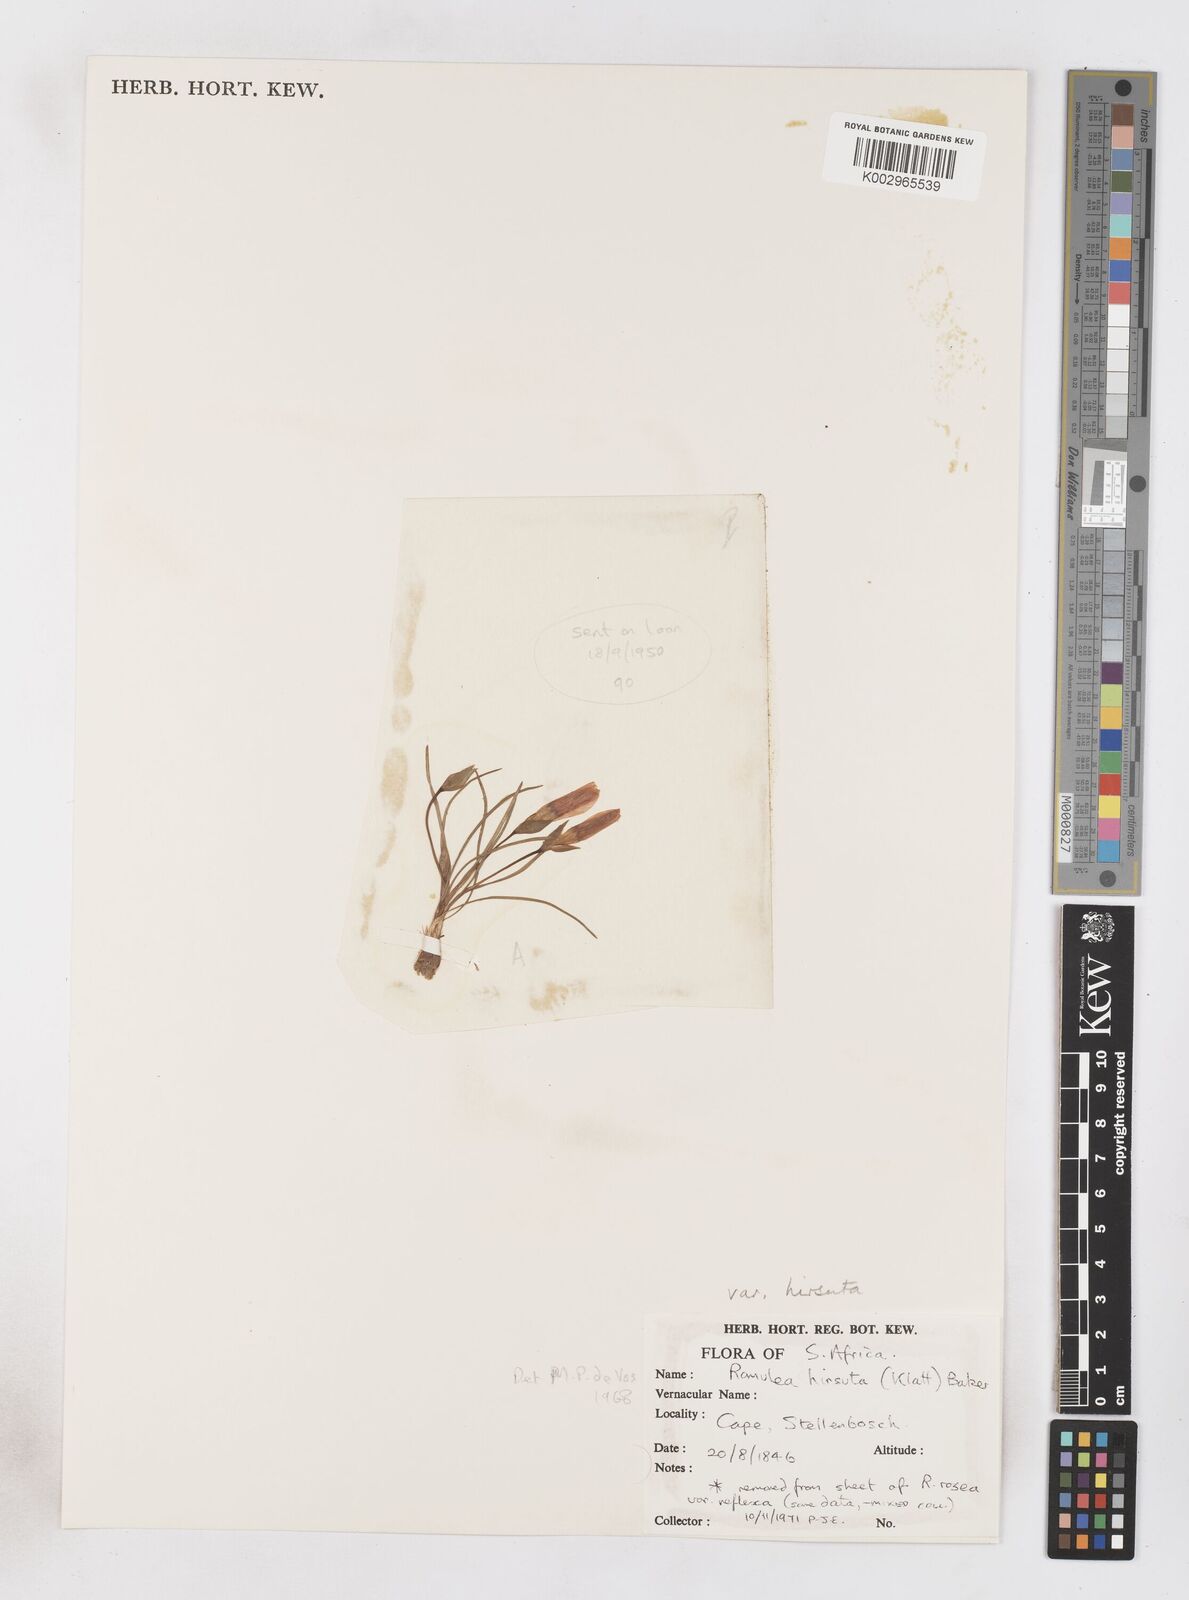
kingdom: Plantae
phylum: Tracheophyta
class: Liliopsida
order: Asparagales
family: Iridaceae
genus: Romulea
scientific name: Romulea hirsuta
